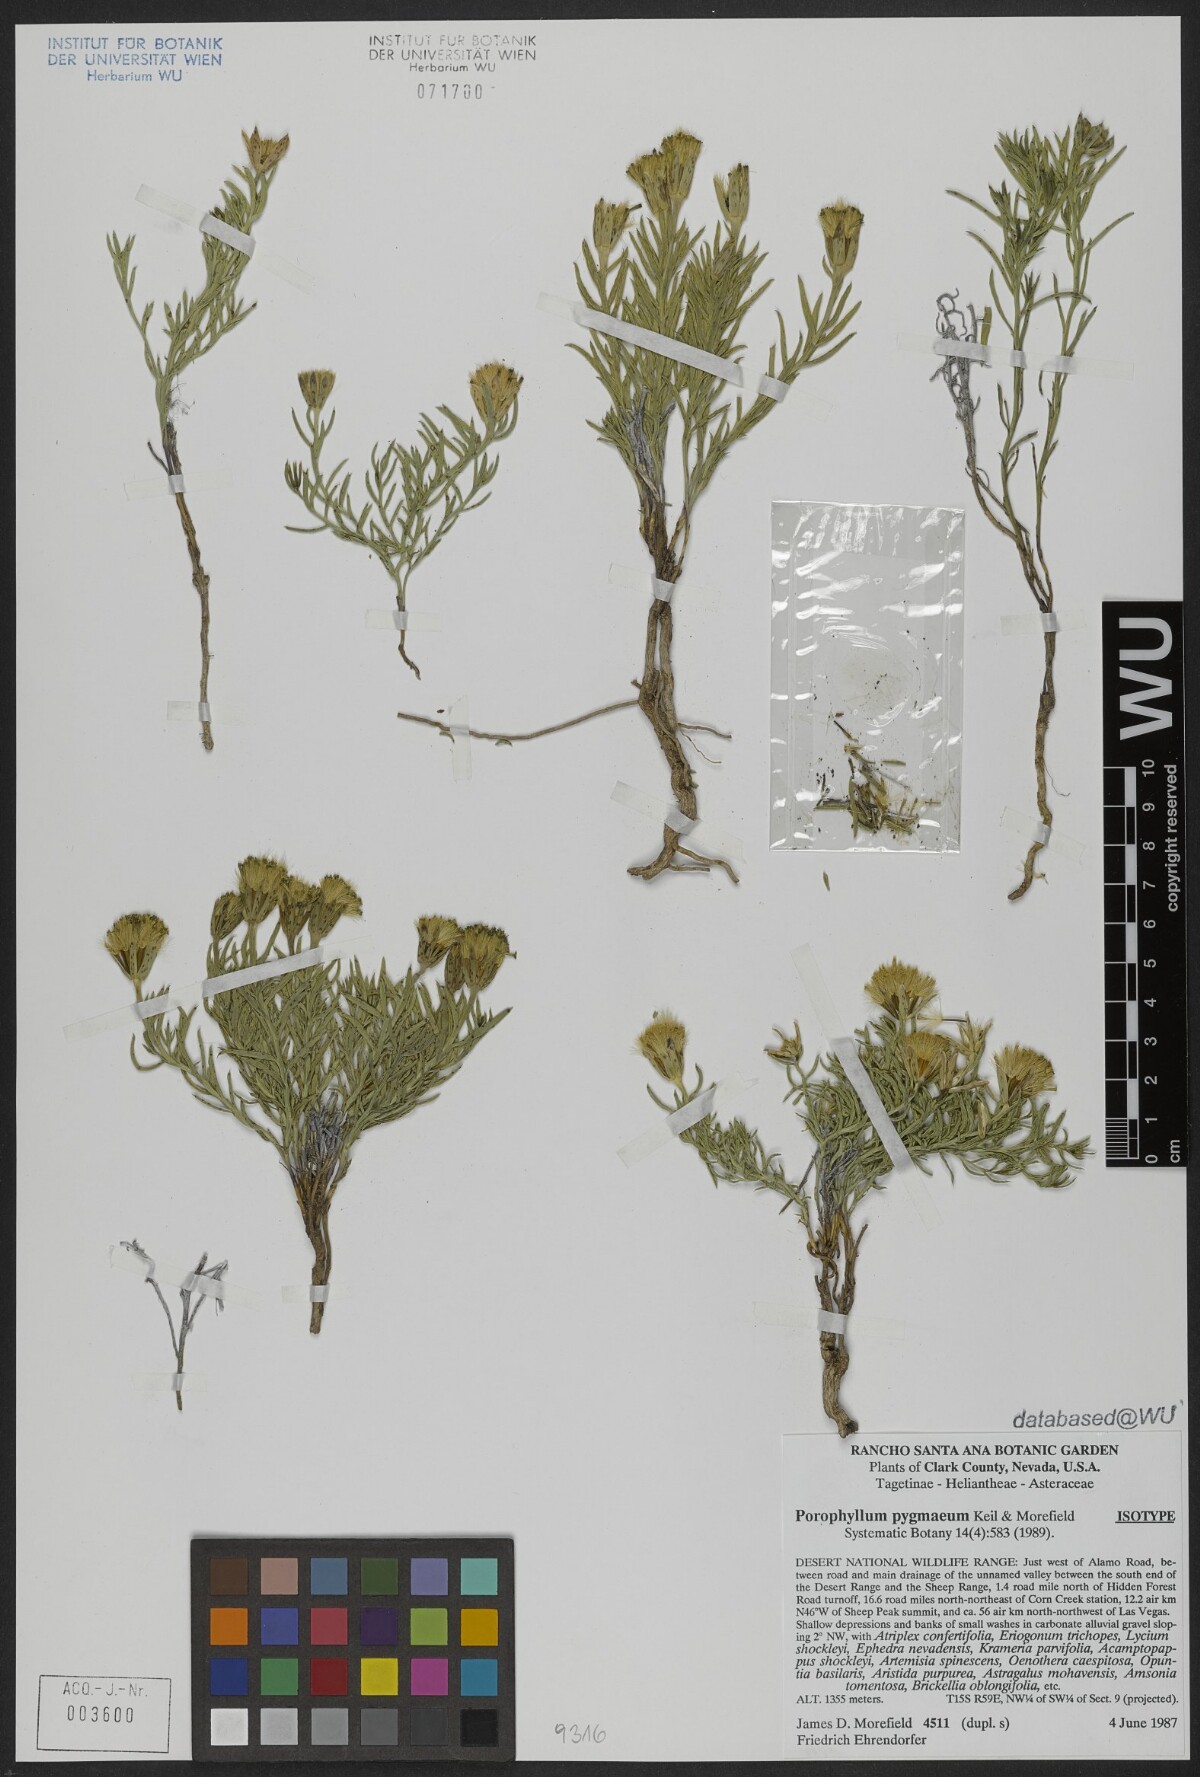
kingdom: Plantae
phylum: Tracheophyta
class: Magnoliopsida
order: Asterales
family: Asteraceae
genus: Porophyllum
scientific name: Porophyllum pygmaeum
